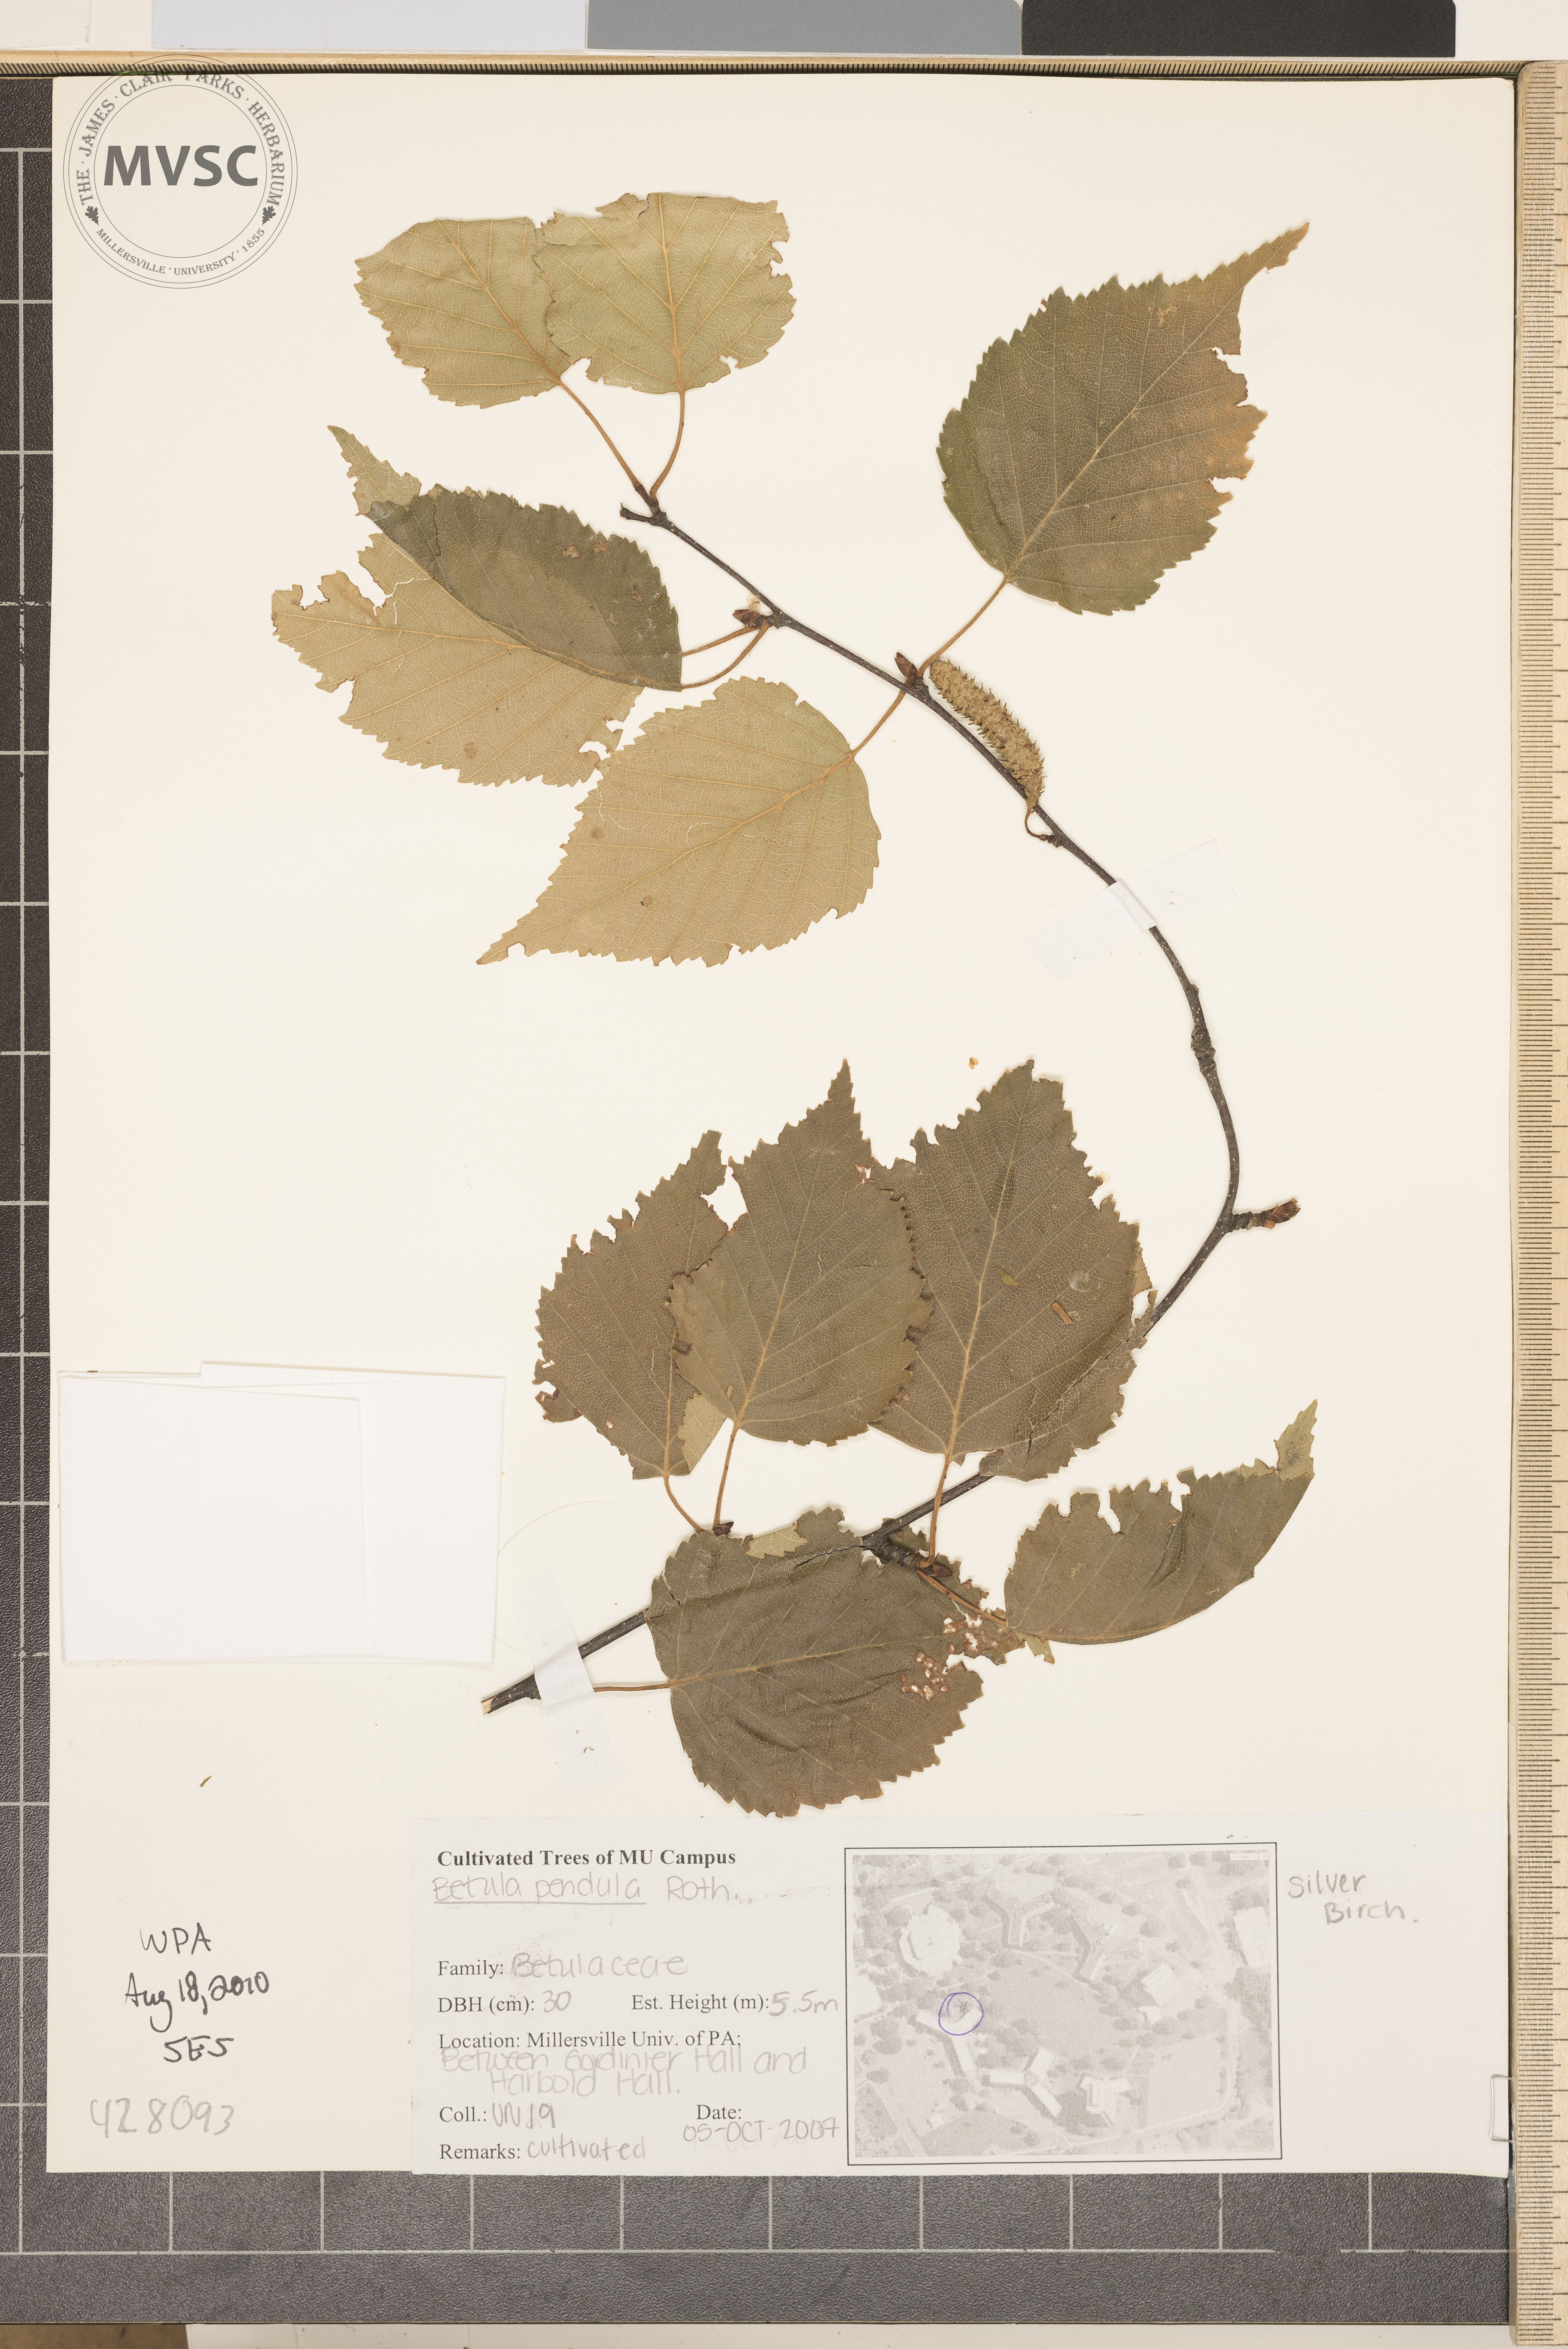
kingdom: Plantae
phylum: Tracheophyta
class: Magnoliopsida
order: Fagales
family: Betulaceae
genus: Betula
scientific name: Betula pendula
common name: Silver Birch
